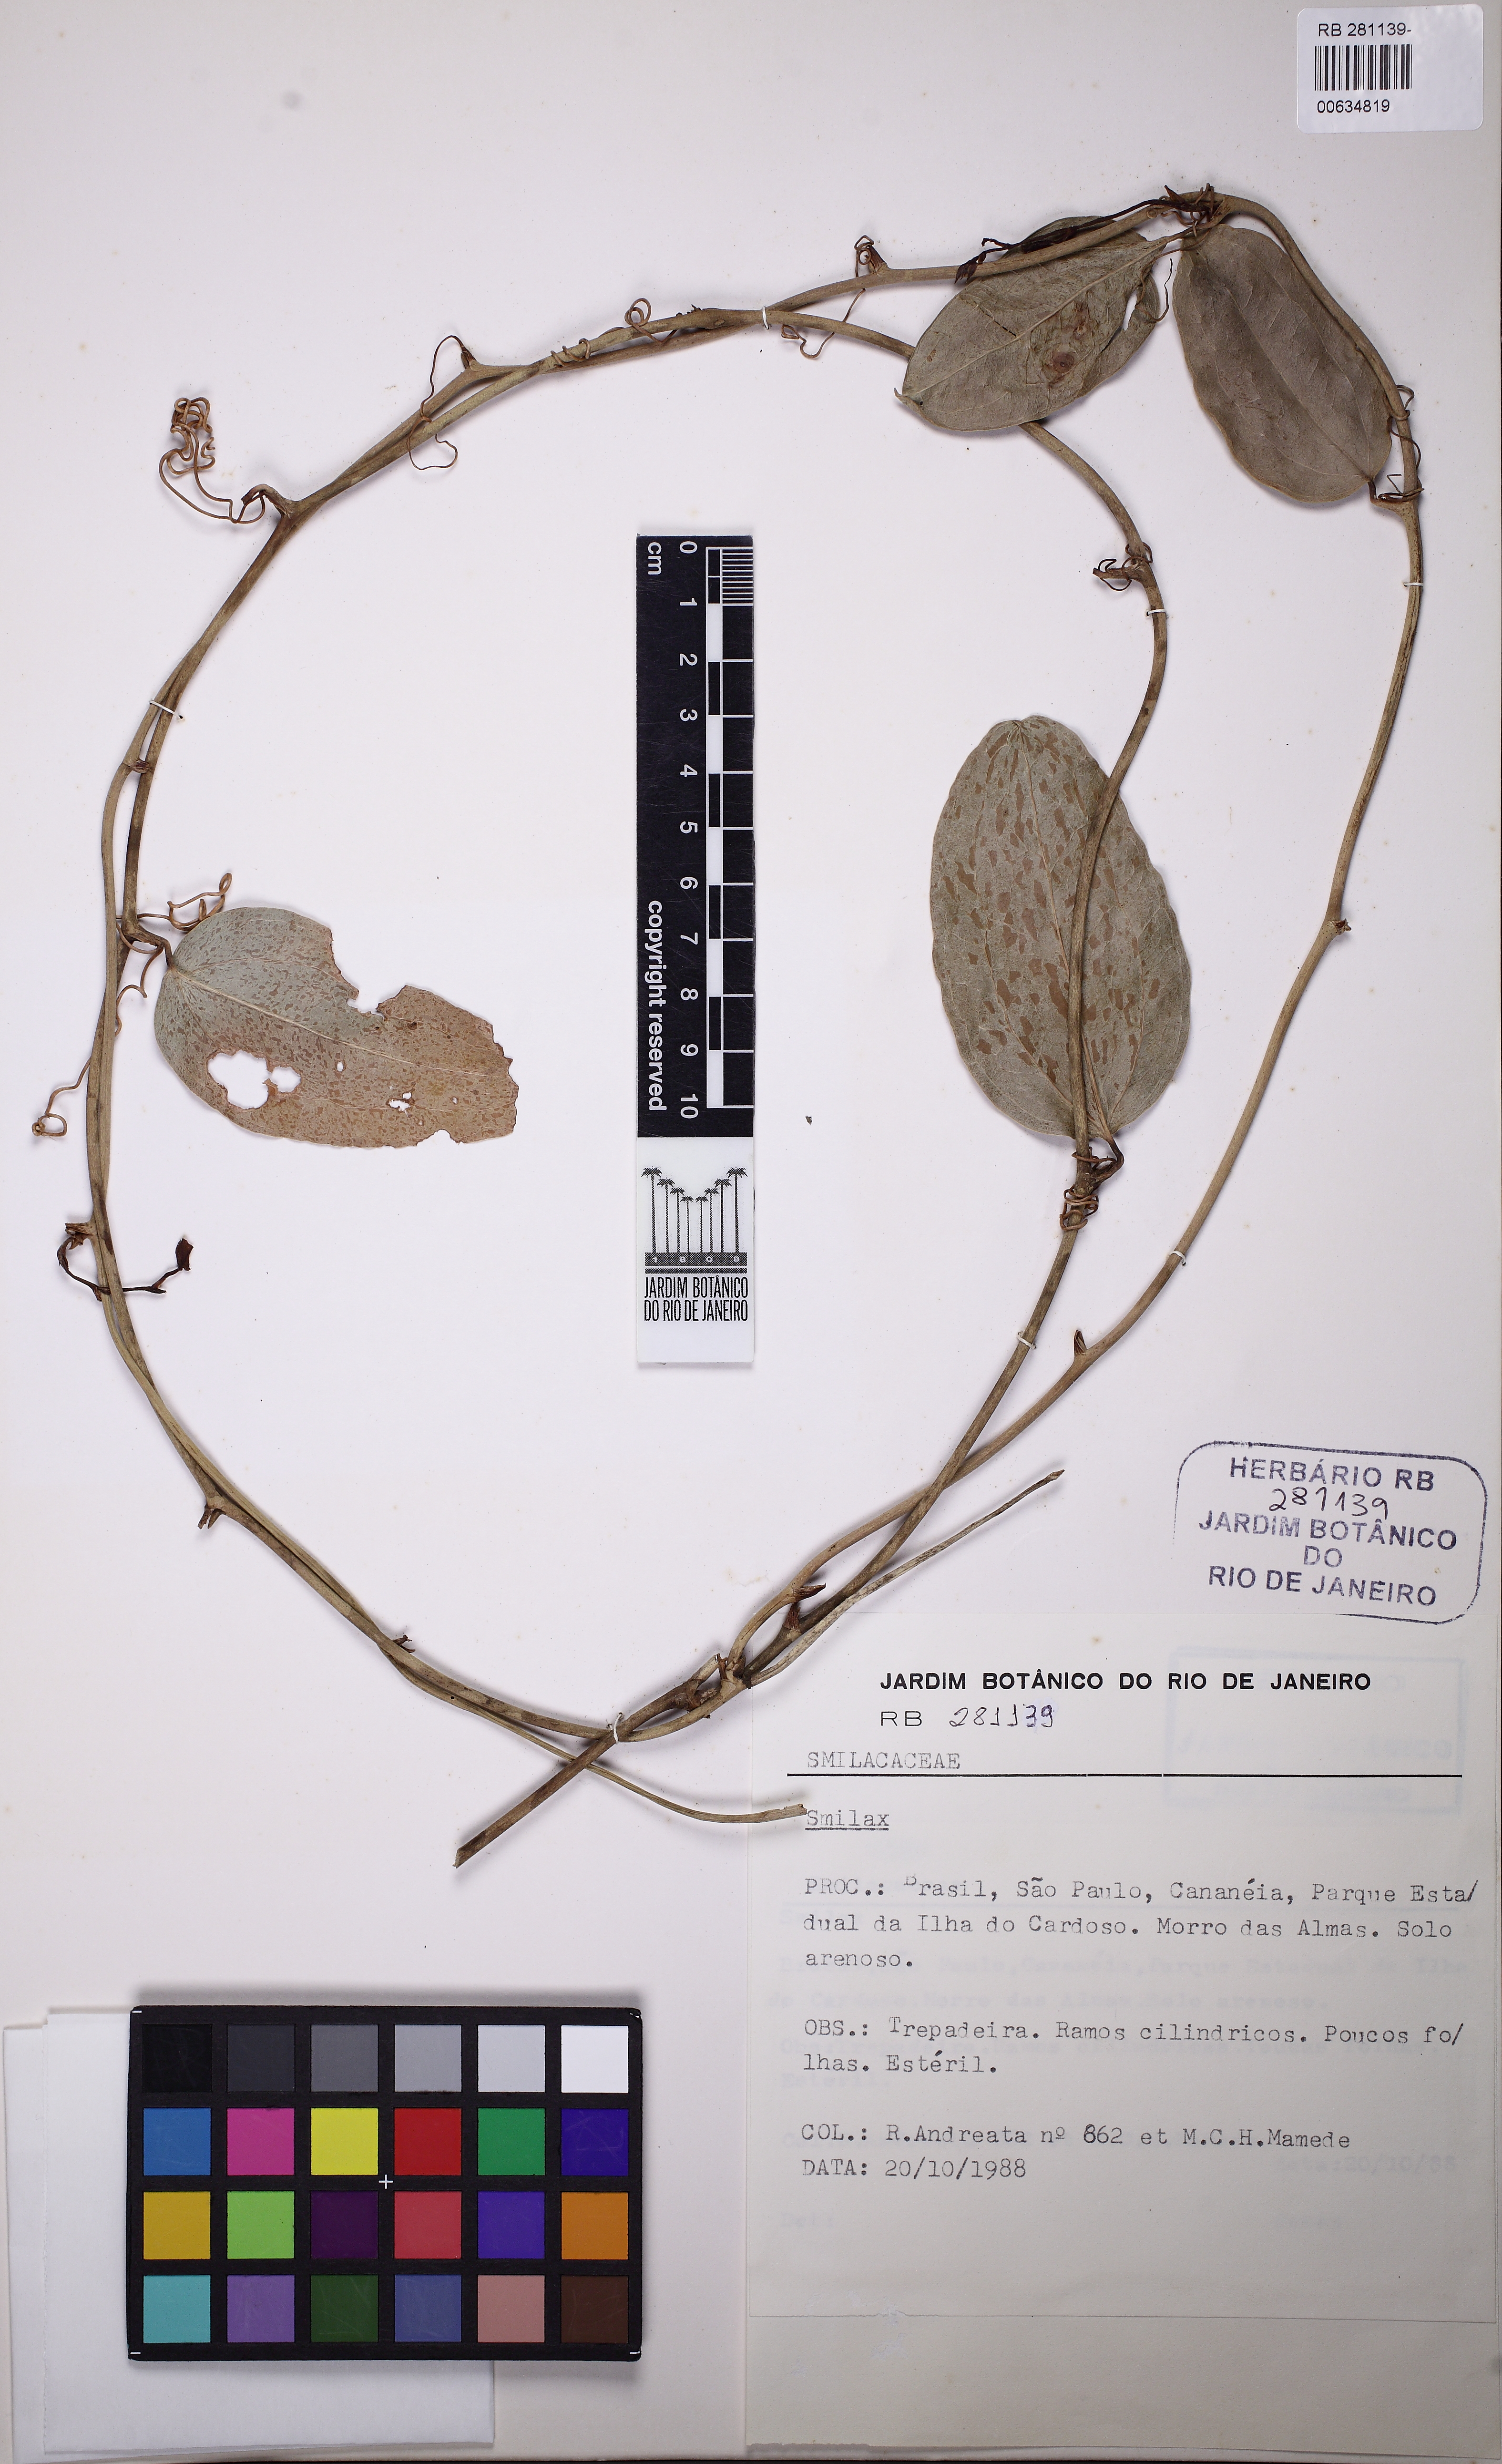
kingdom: Plantae
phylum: Tracheophyta
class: Liliopsida
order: Liliales
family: Smilacaceae
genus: Smilax
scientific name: Smilax
